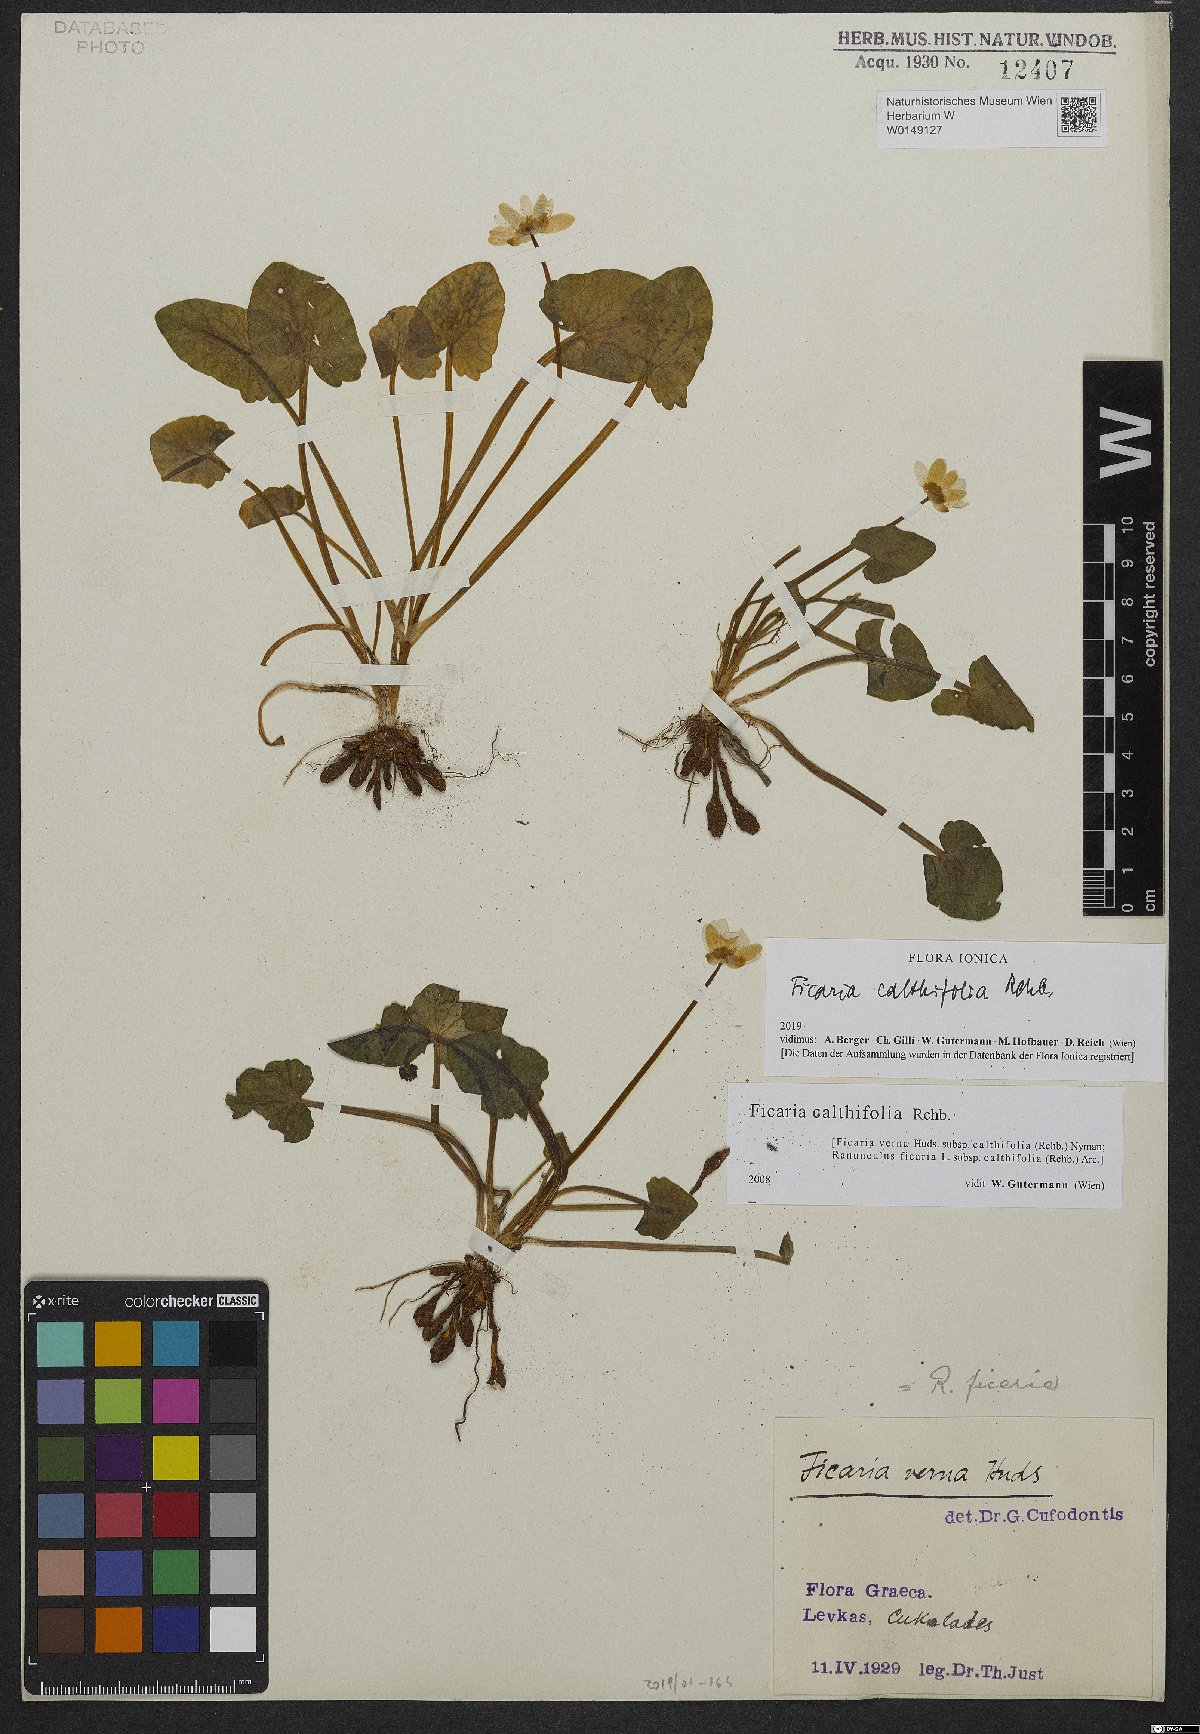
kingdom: Plantae
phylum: Tracheophyta
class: Magnoliopsida
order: Ranunculales
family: Ranunculaceae
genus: Ficaria
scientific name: Ficaria calthifolia
